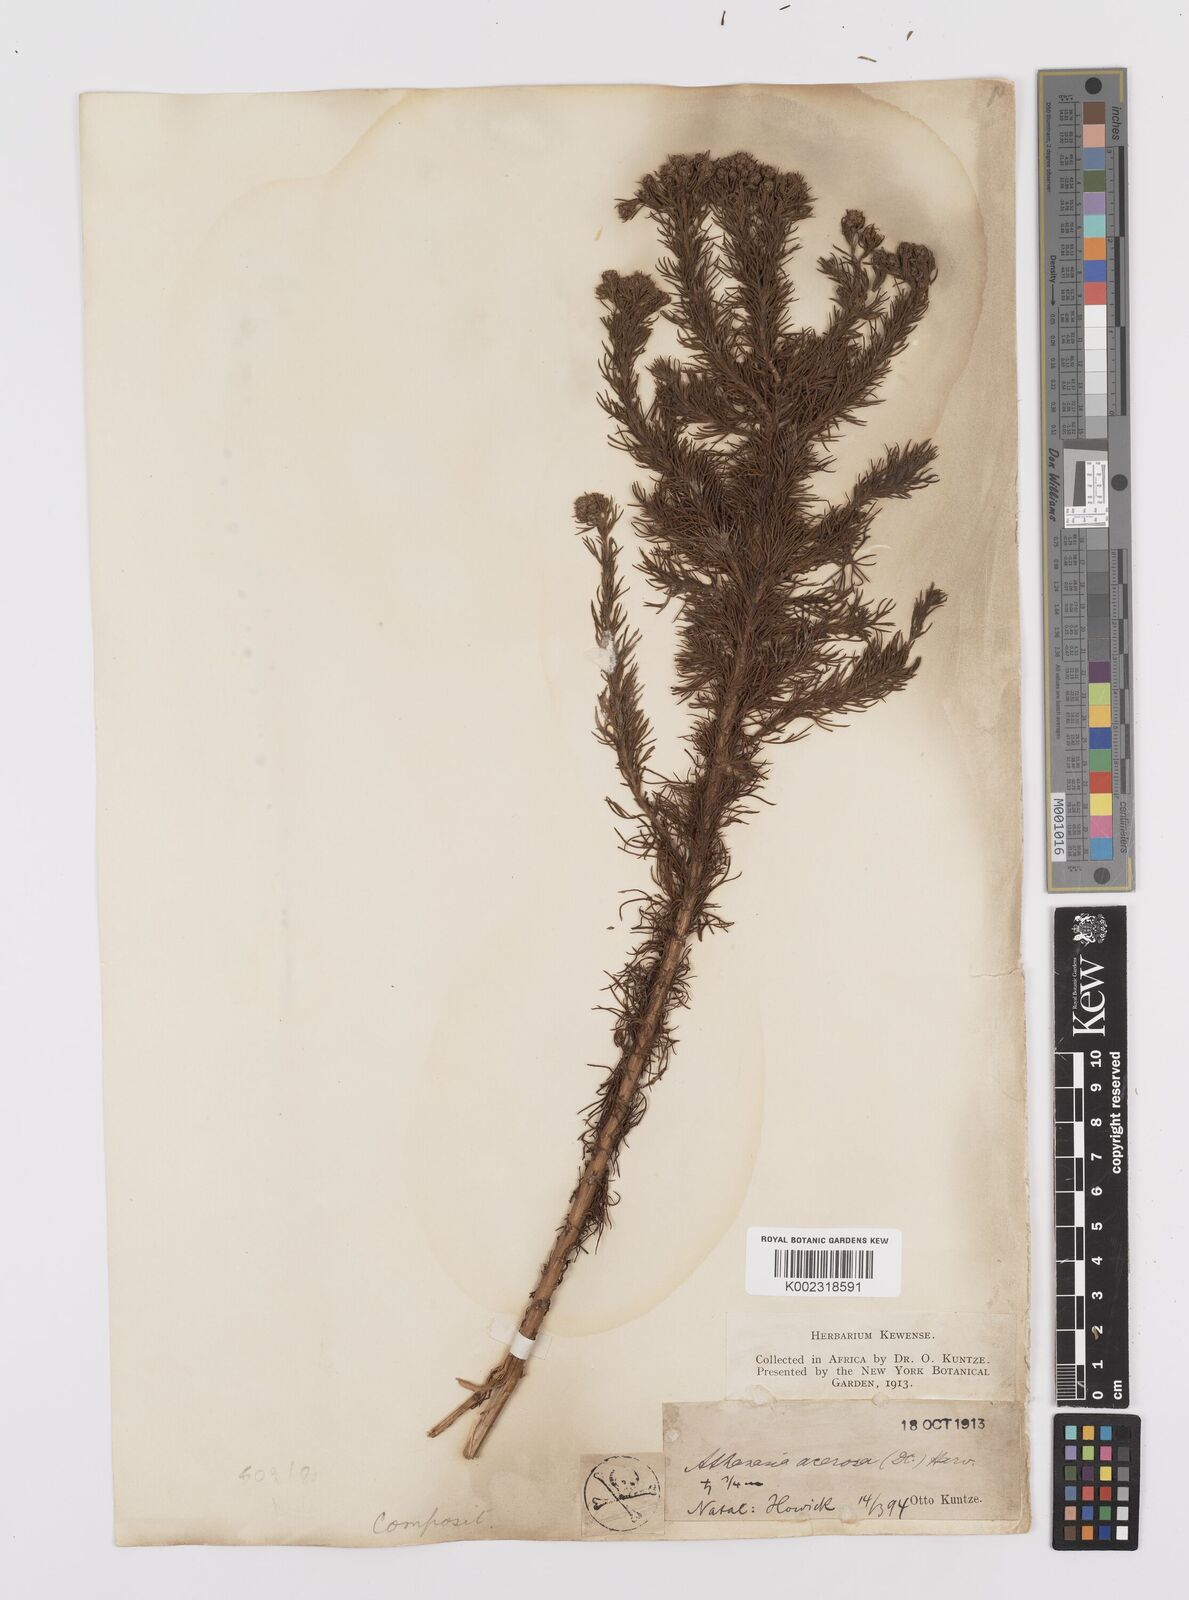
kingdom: Plantae
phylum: Tracheophyta
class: Magnoliopsida
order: Asterales
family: Asteraceae
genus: Phymaspermum
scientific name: Phymaspermum acerosum
